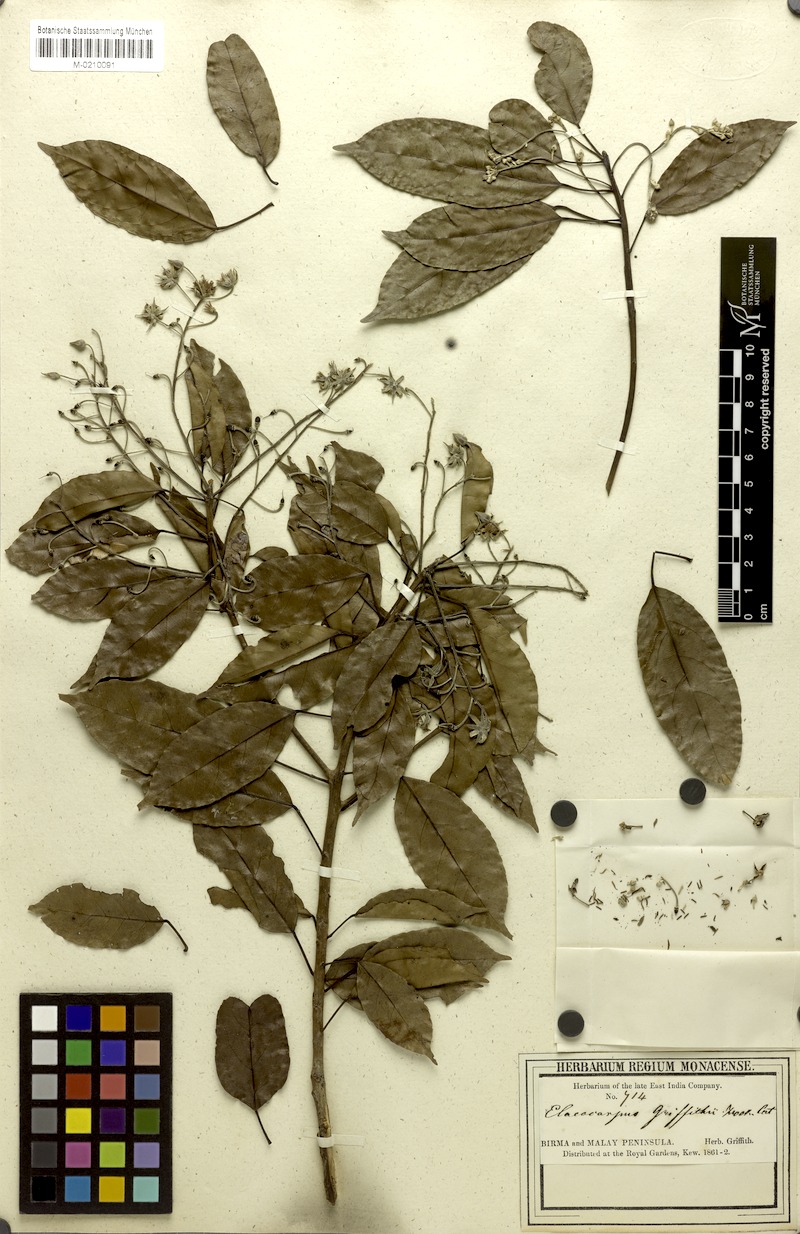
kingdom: Plantae
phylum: Tracheophyta
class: Magnoliopsida
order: Oxalidales
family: Elaeocarpaceae
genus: Elaeocarpus
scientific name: Elaeocarpus griffithii
